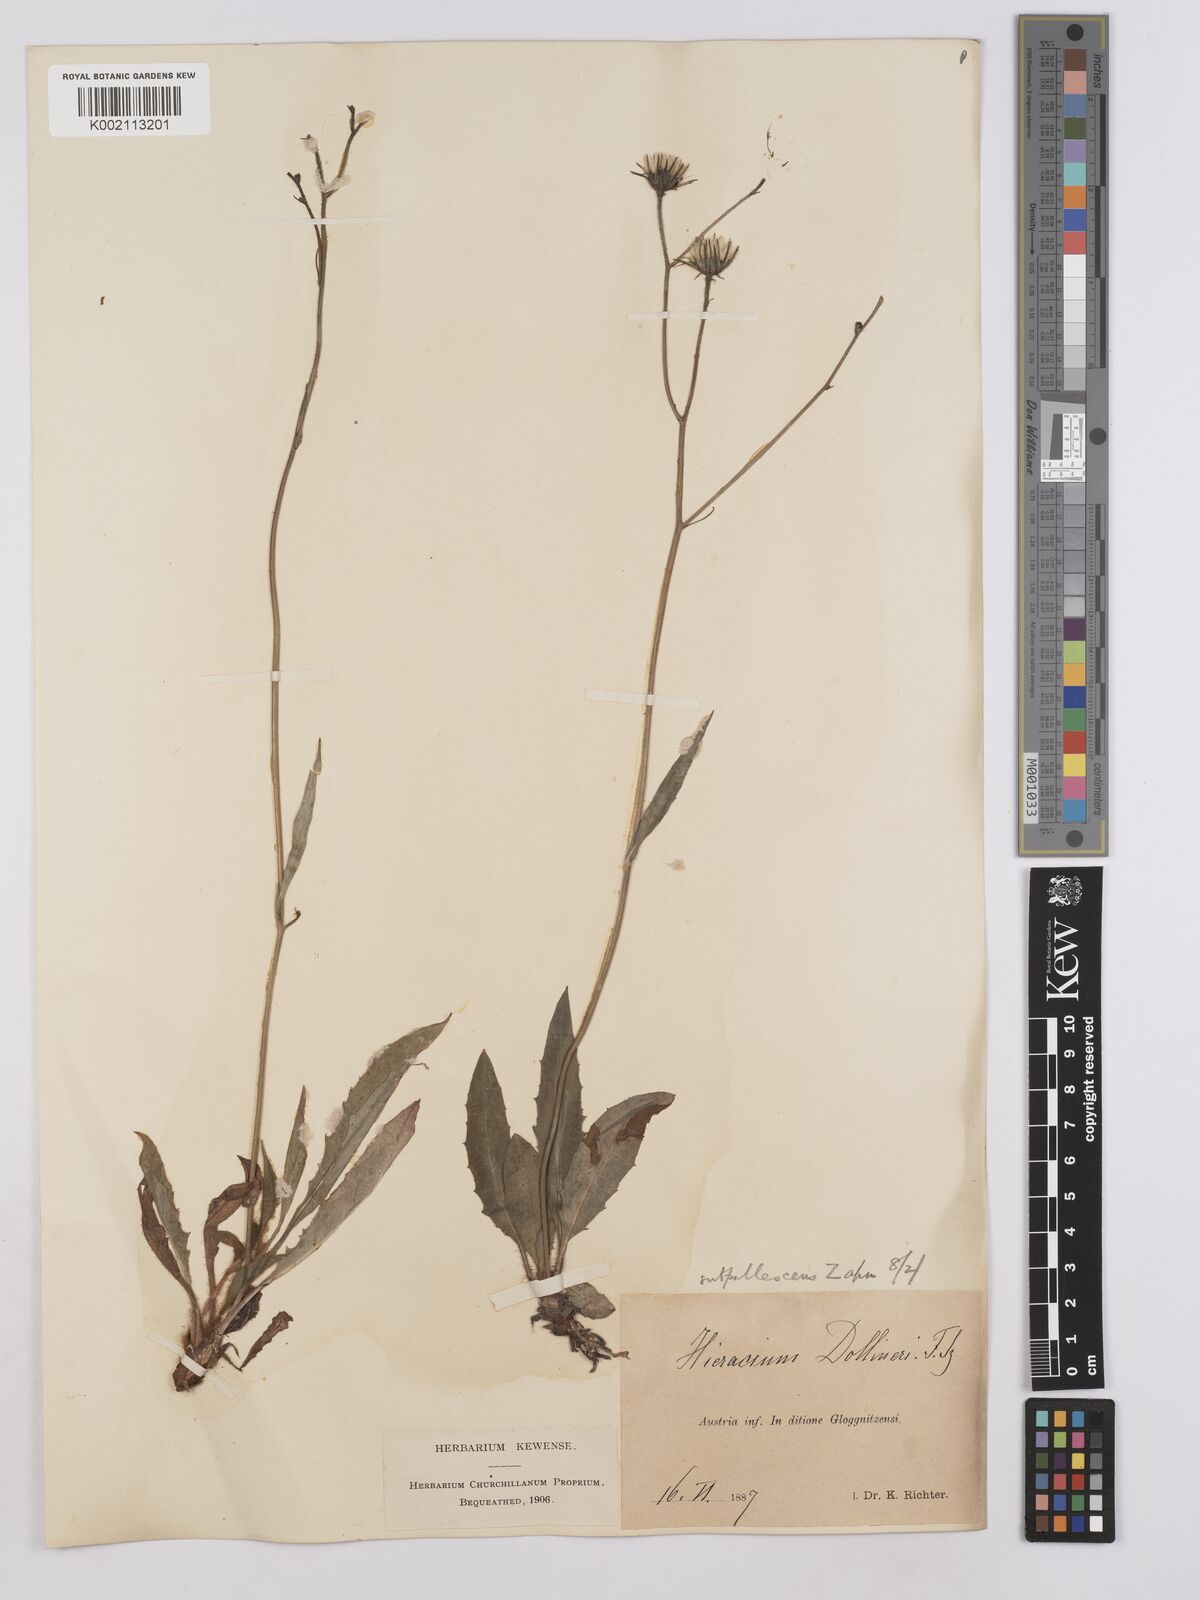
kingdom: Plantae
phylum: Tracheophyta
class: Magnoliopsida
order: Asterales
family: Asteraceae
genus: Crepis
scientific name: Crepis blattarioides
